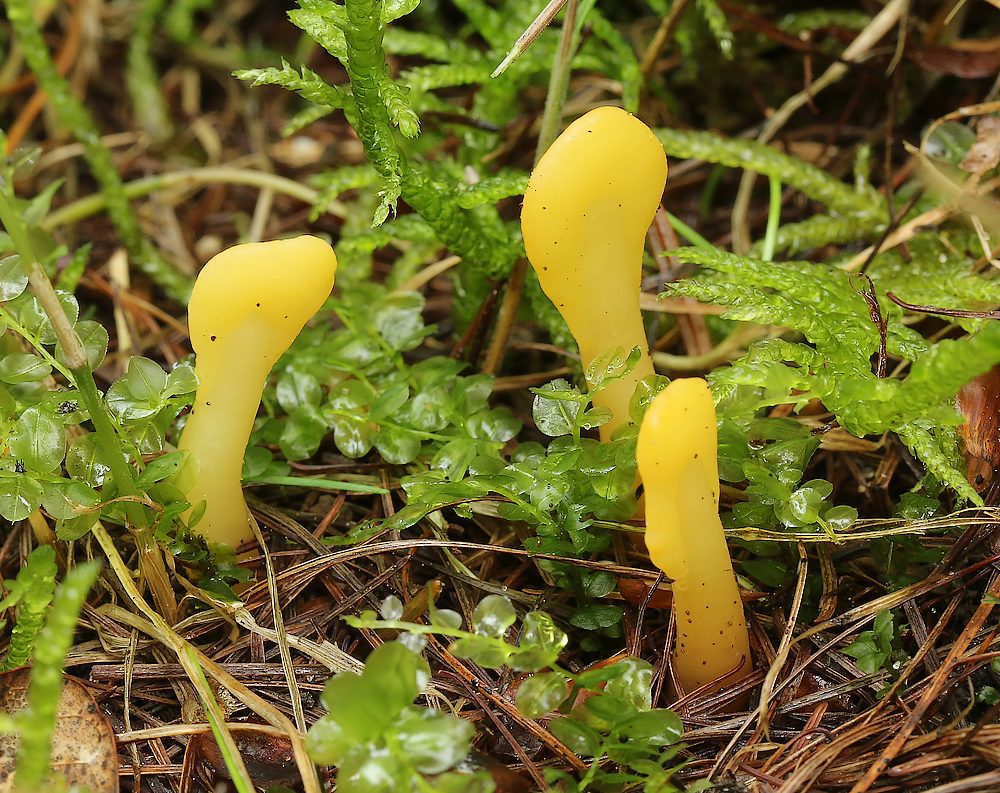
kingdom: Fungi
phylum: Ascomycota
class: Leotiomycetes
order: Rhytismatales
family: Cudoniaceae
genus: Spathularia
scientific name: Spathularia flavida
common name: gul spatelsvamp
